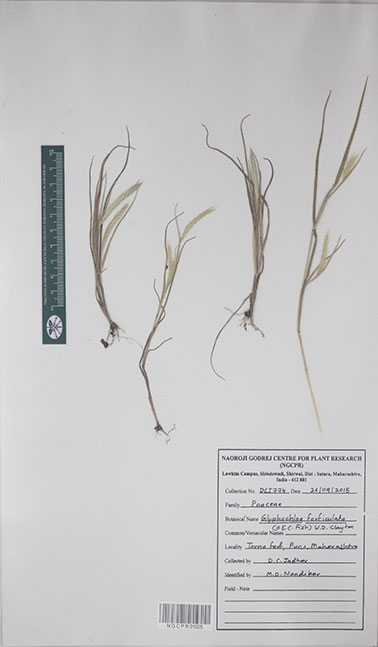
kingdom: Plantae
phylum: Tracheophyta
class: Liliopsida
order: Poales
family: Poaceae
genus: Glyphochloa
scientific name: Glyphochloa forficulata
